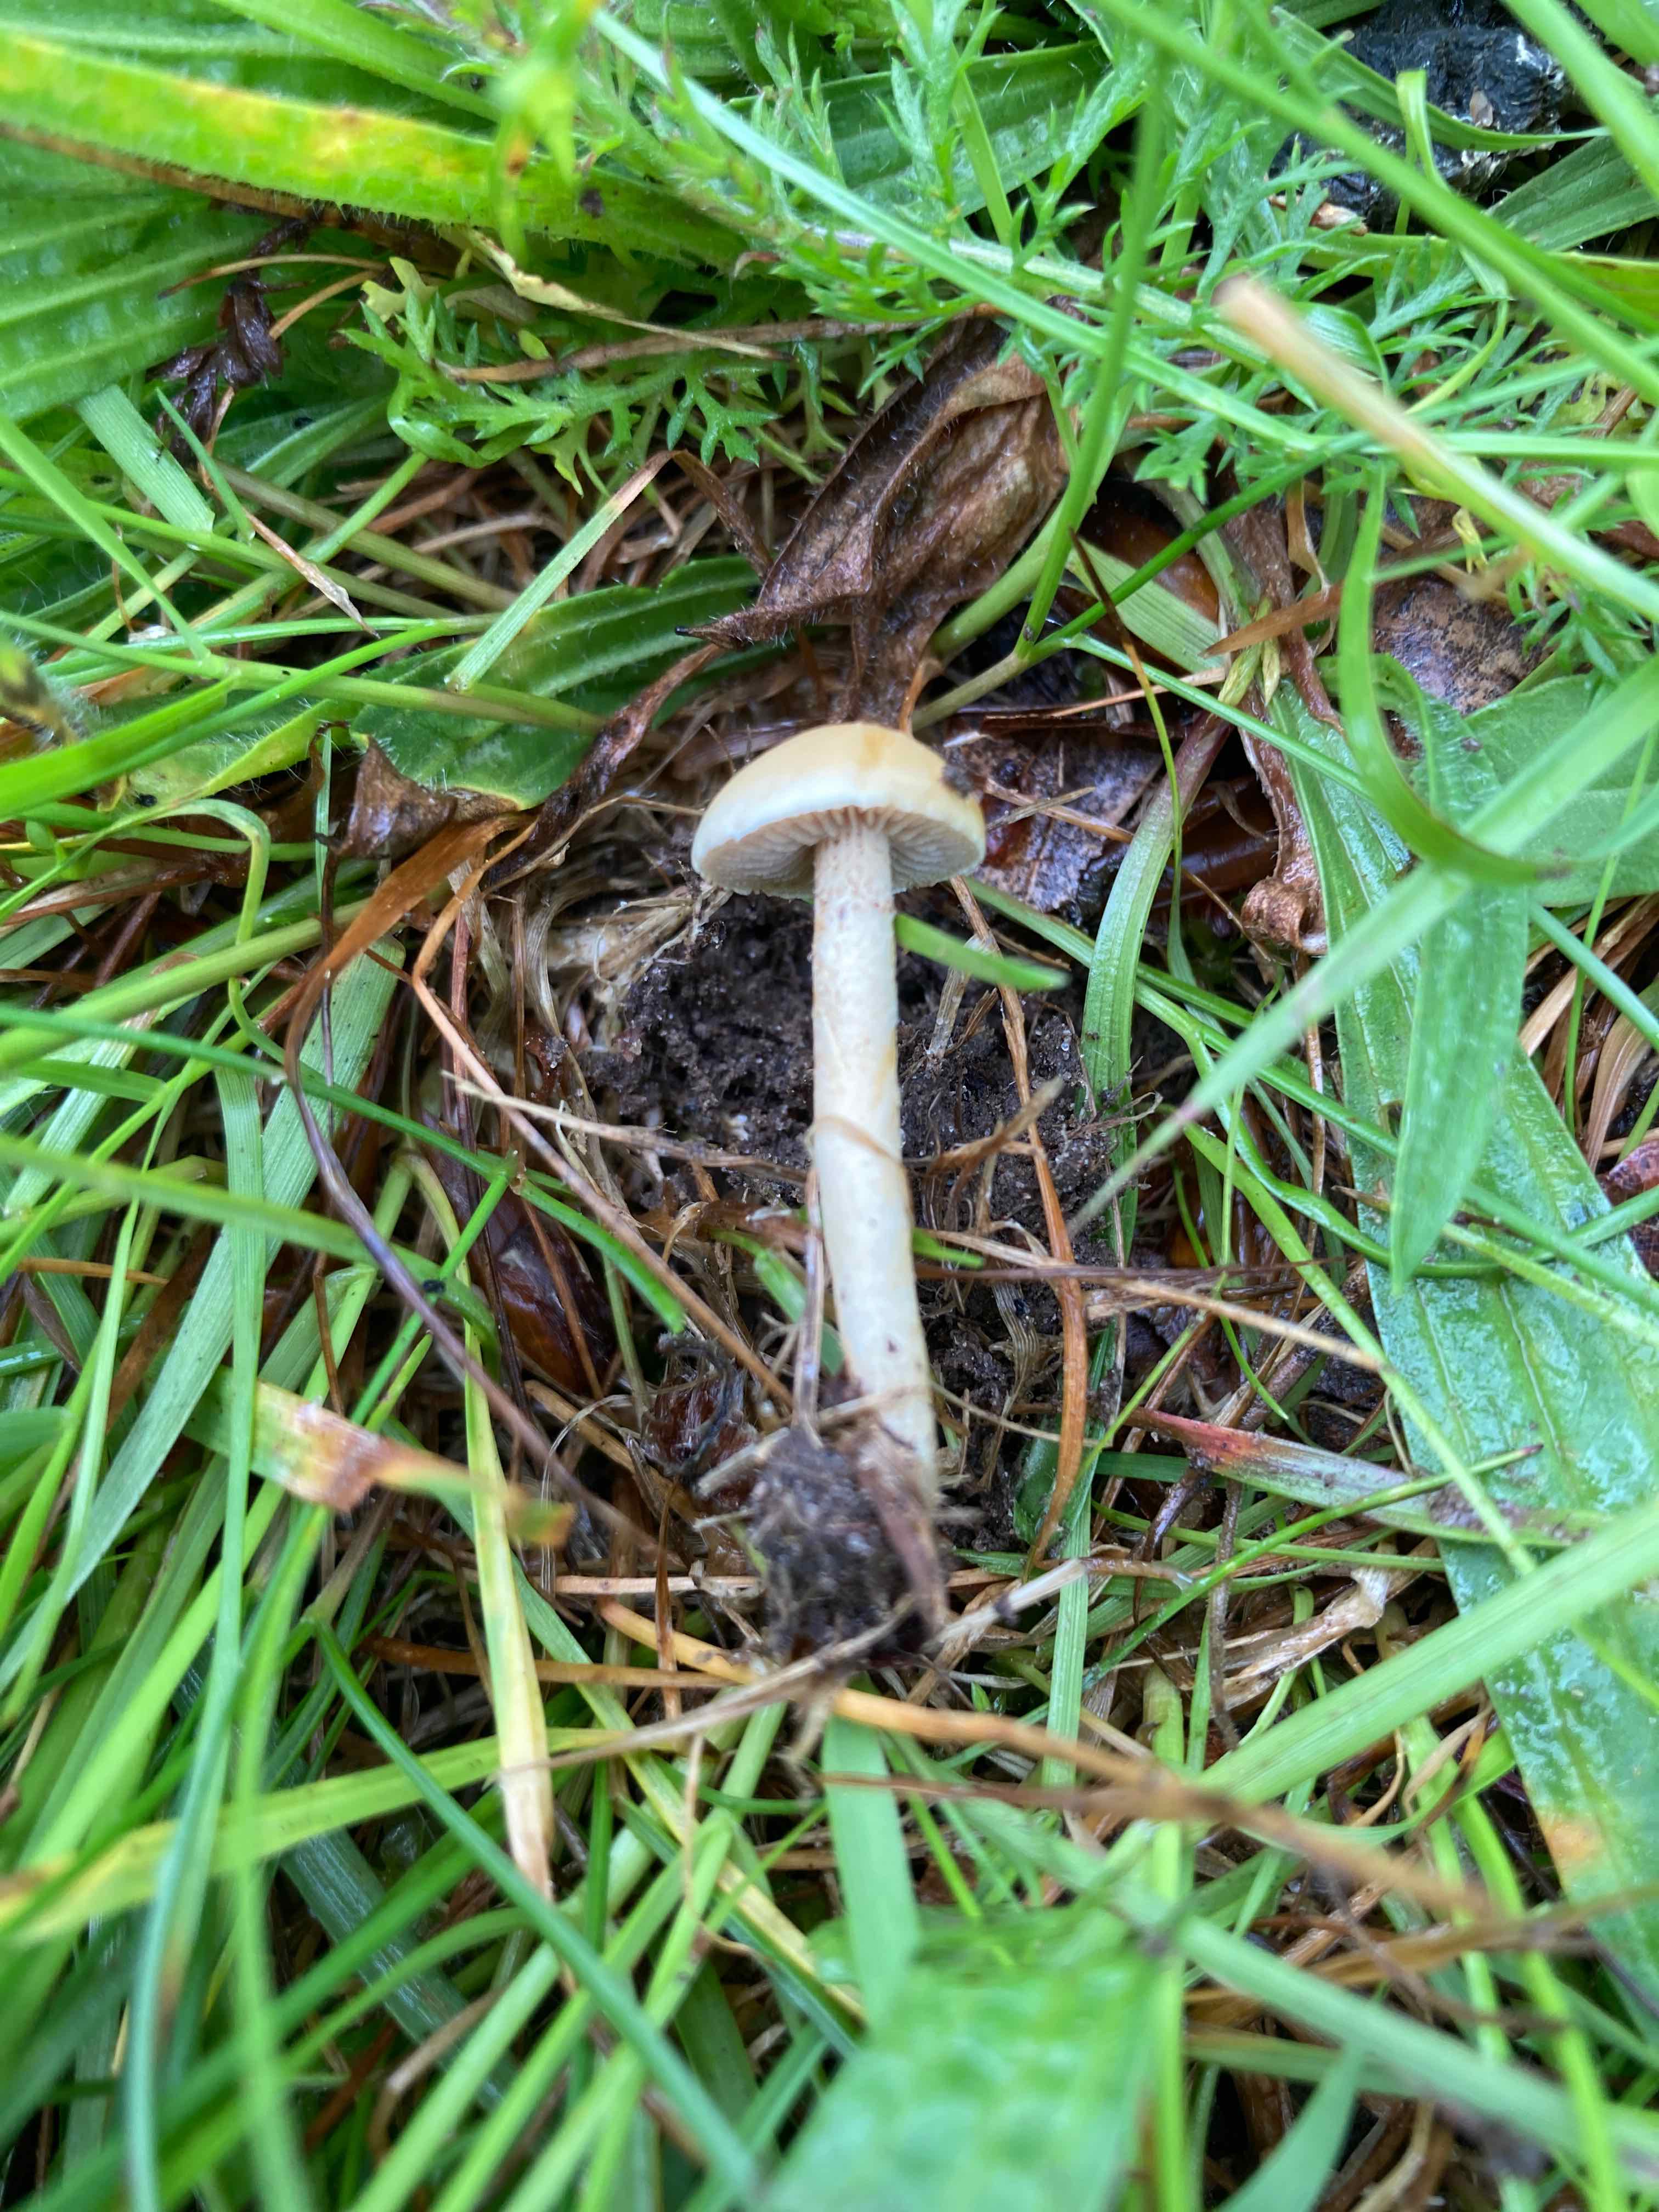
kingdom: Fungi
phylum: Basidiomycota
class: Agaricomycetes
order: Agaricales
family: Strophariaceae
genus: Agrocybe
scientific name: Agrocybe pediades
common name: almindelig agerhat
